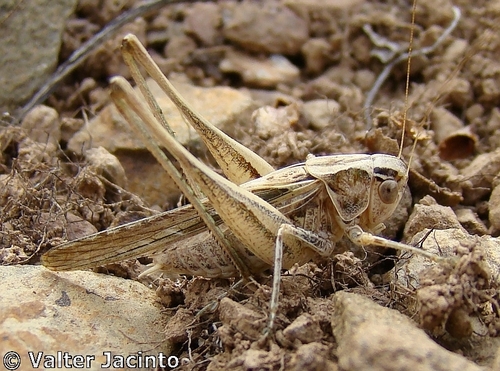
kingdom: Animalia
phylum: Arthropoda
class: Insecta
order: Orthoptera
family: Tettigoniidae
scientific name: Tettigoniidae
